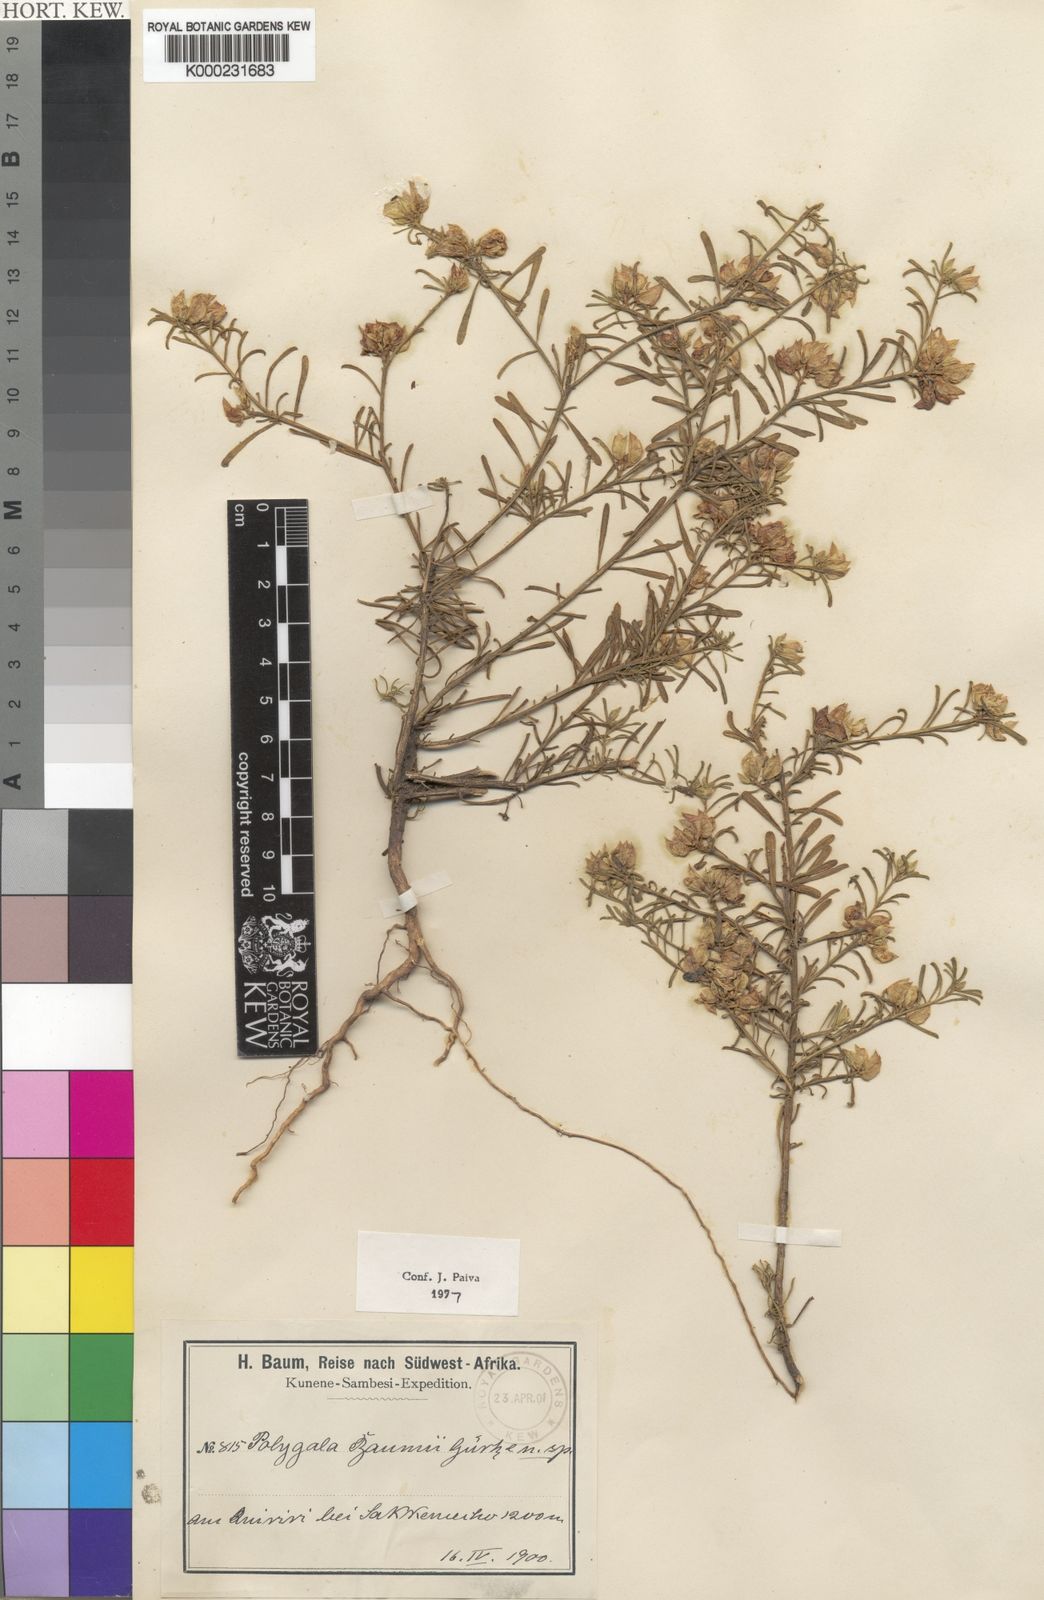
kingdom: Plantae
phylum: Tracheophyta
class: Magnoliopsida
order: Fabales
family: Polygalaceae
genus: Polygala
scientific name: Polygala
